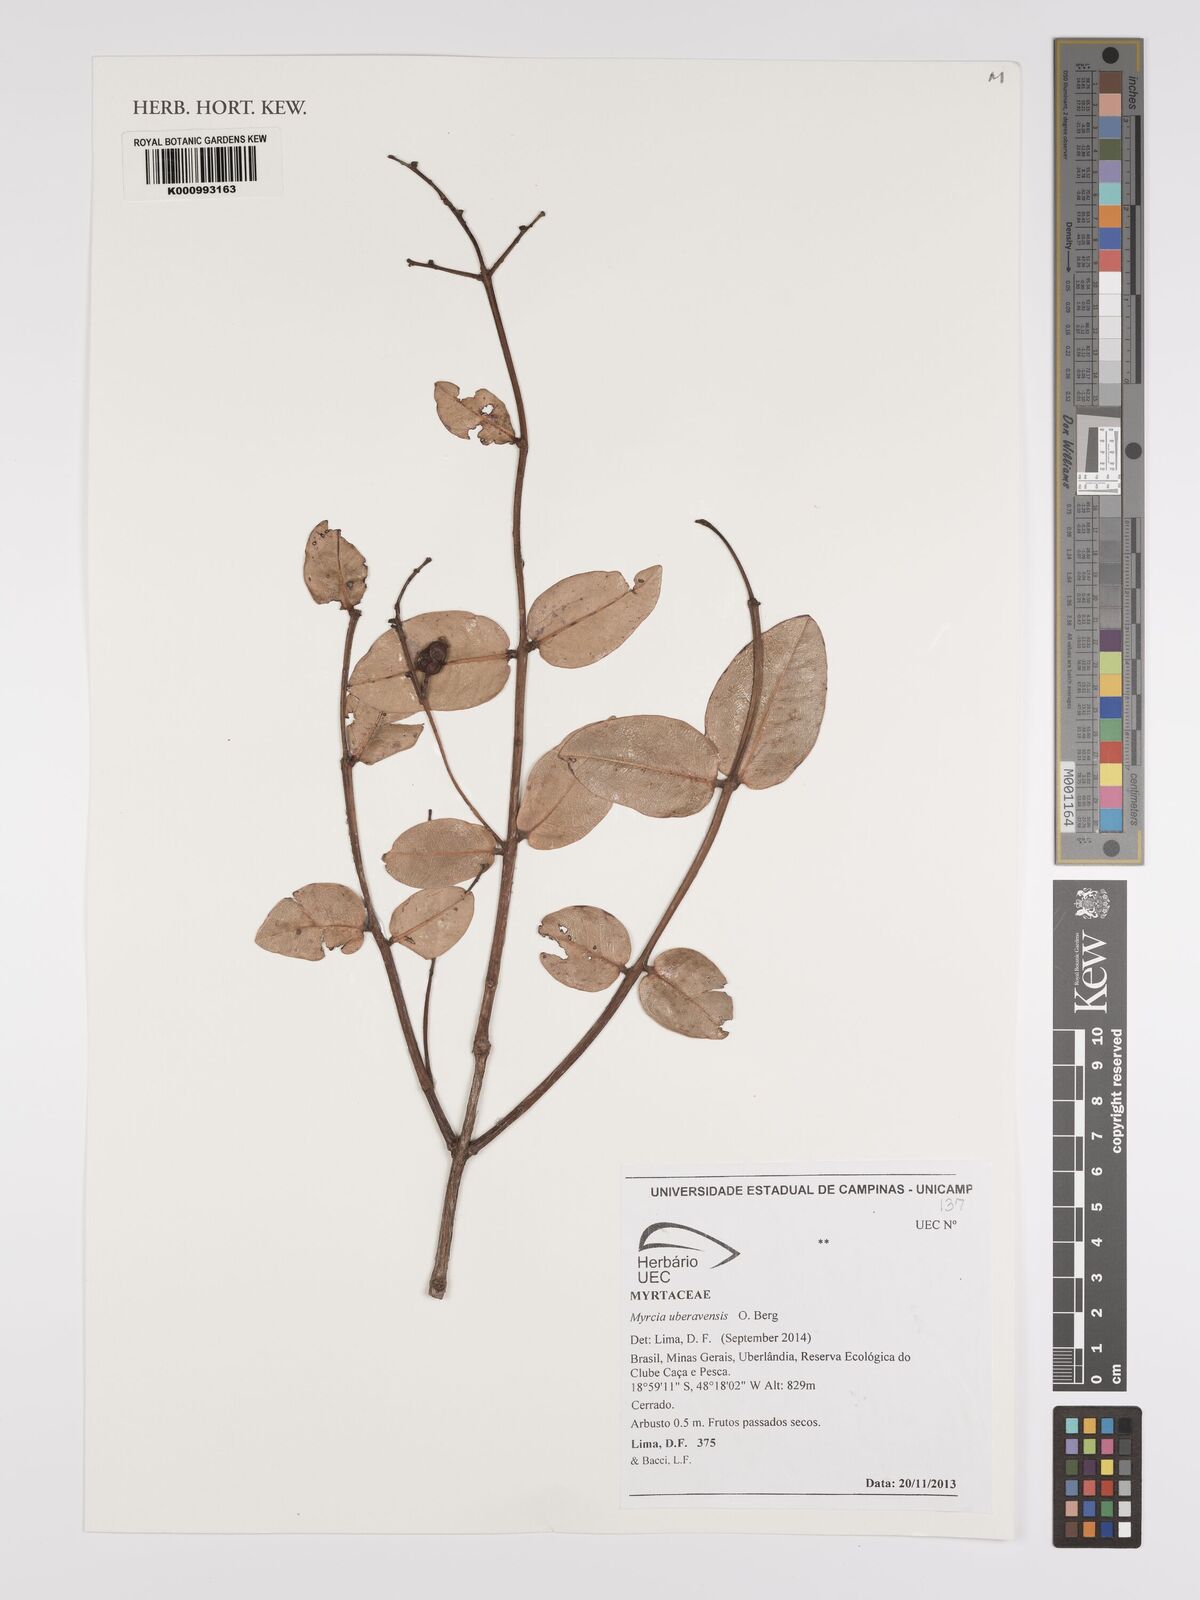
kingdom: Plantae
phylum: Tracheophyta
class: Magnoliopsida
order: Myrtales
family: Myrtaceae
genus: Myrcia
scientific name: Myrcia uberavensis
